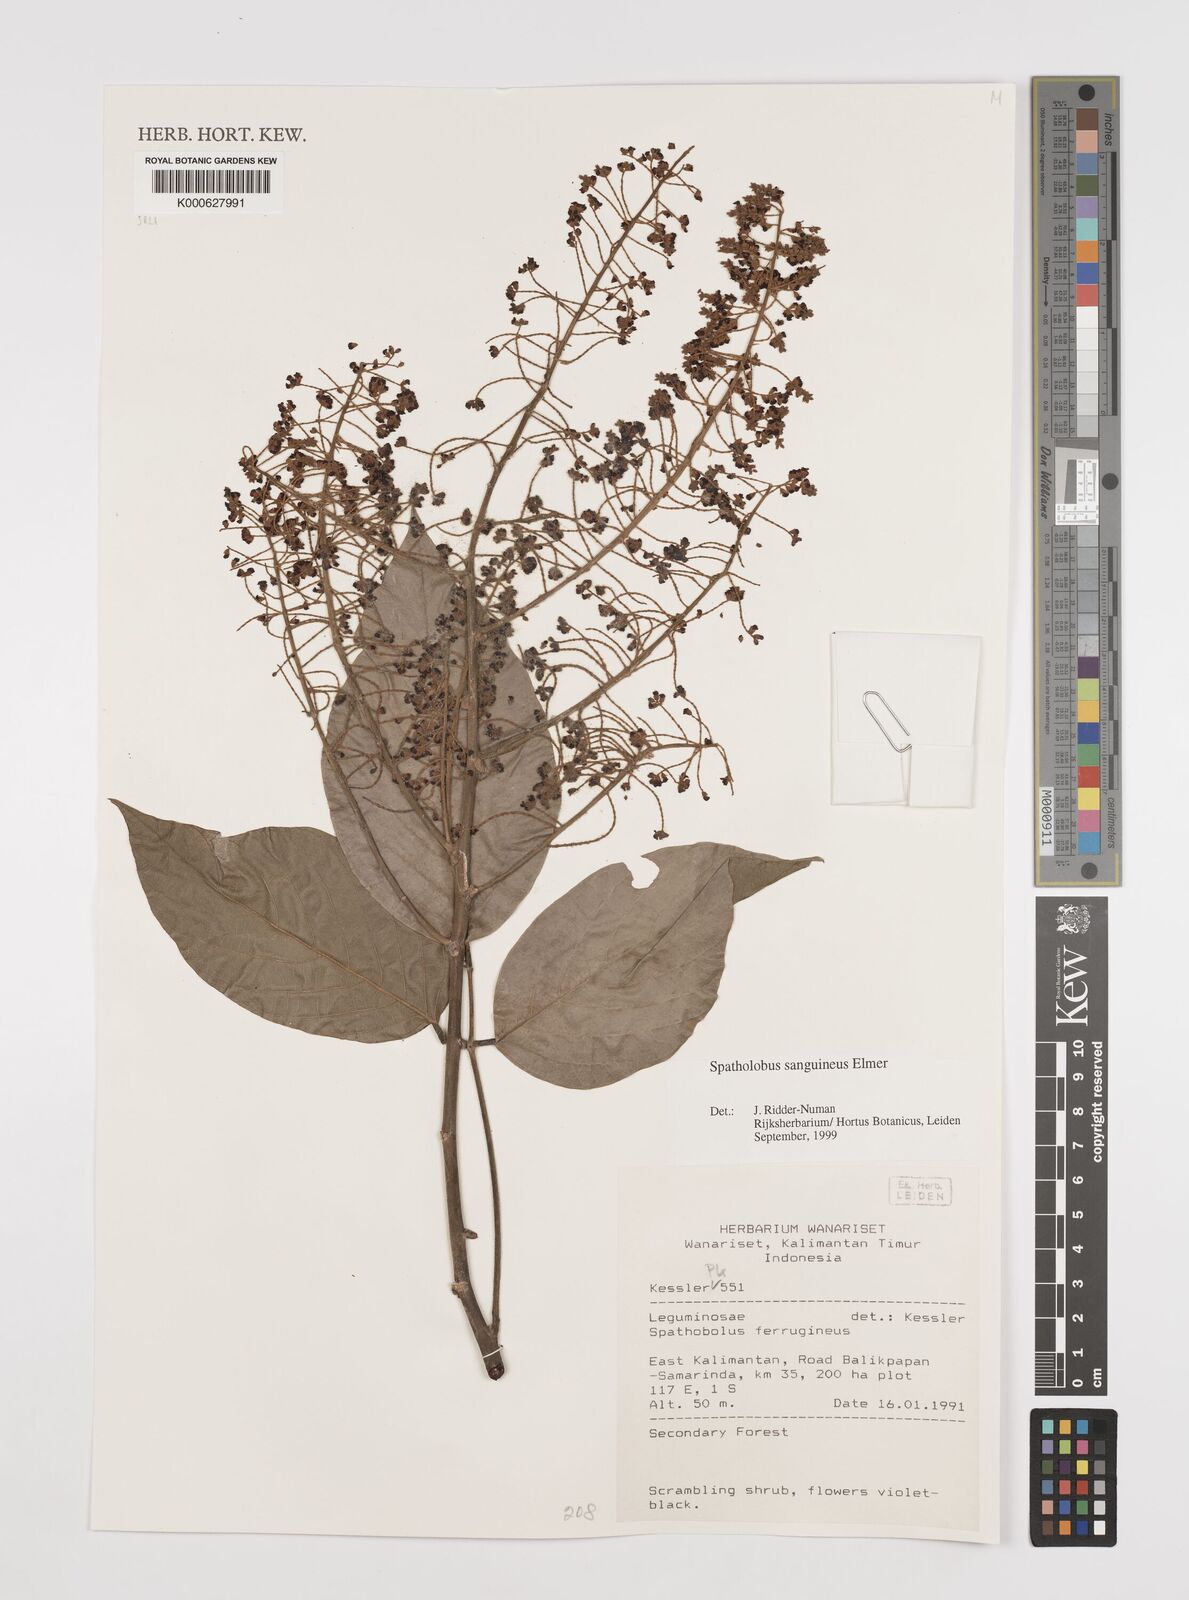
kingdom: Plantae
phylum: Tracheophyta
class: Magnoliopsida
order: Fabales
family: Fabaceae
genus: Spatholobus
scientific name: Spatholobus
